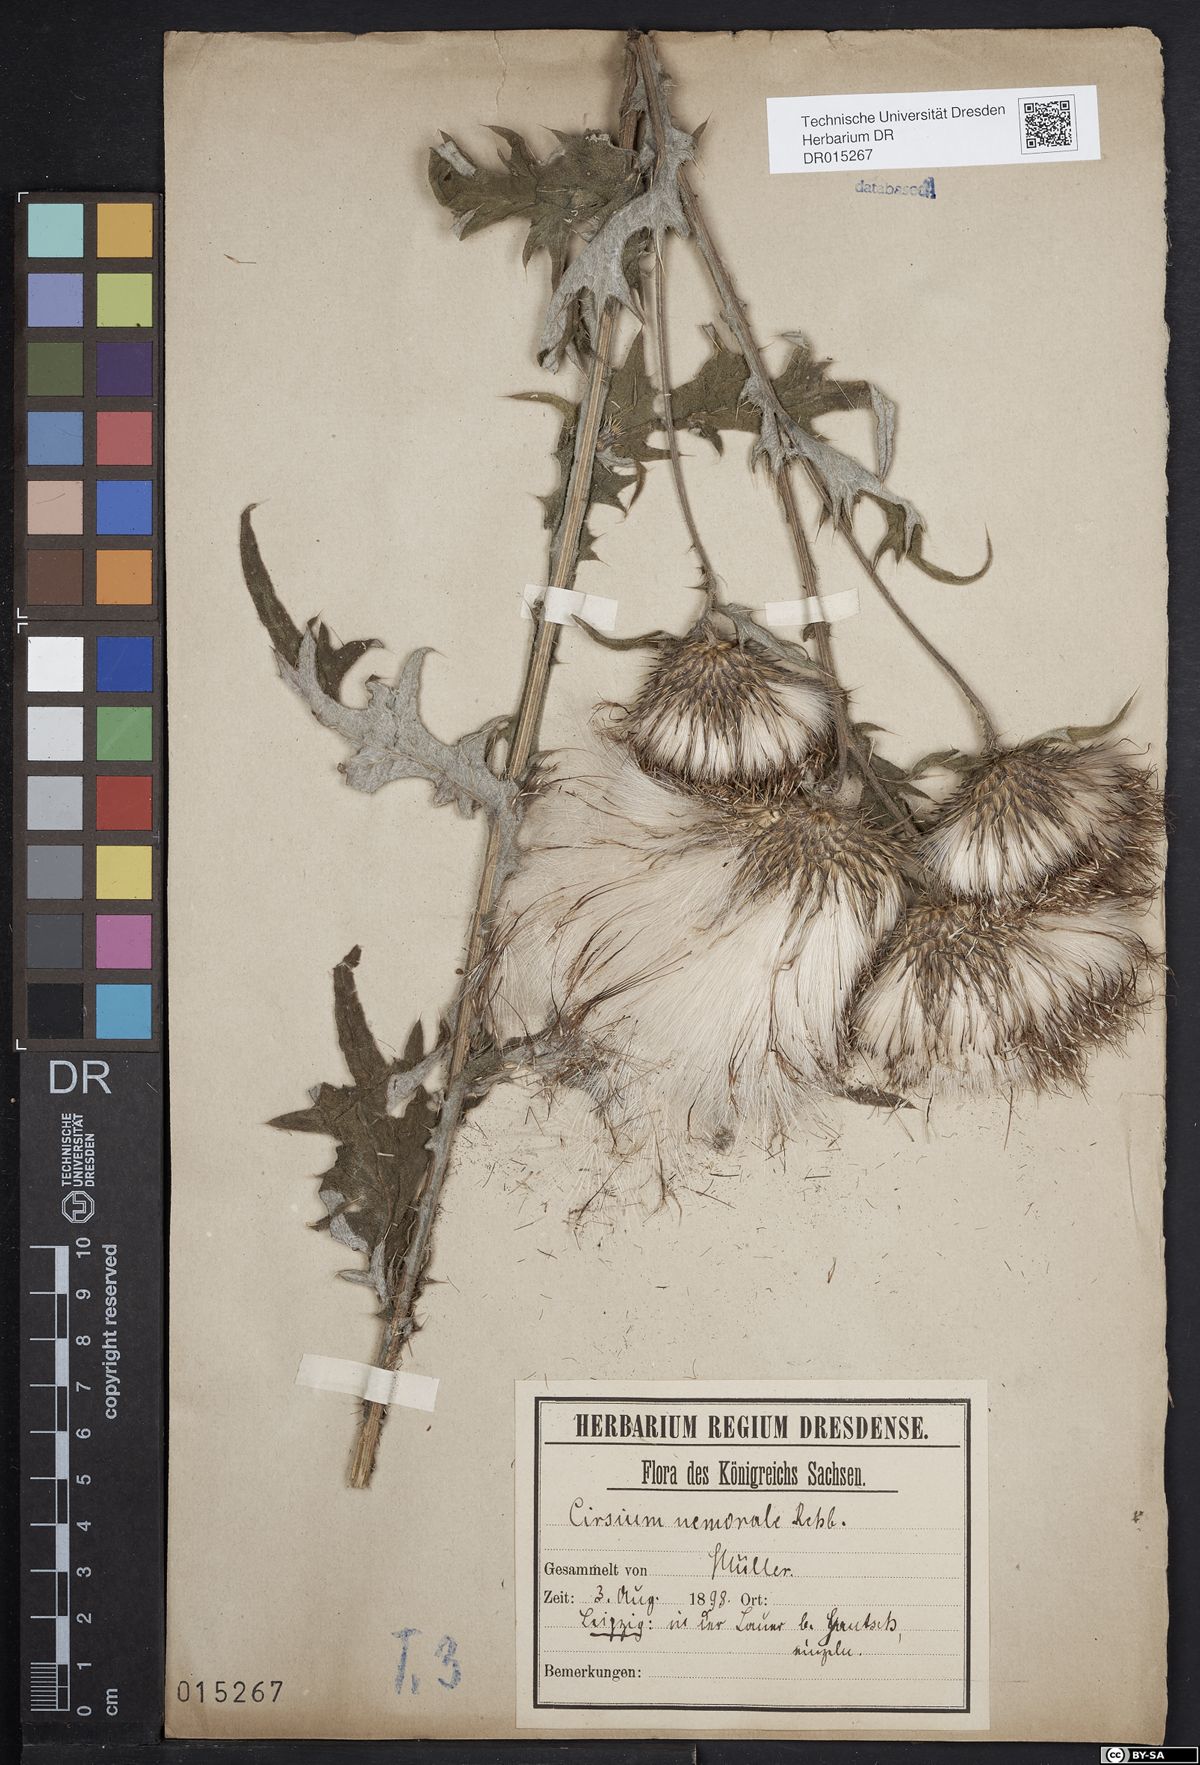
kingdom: Plantae
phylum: Tracheophyta
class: Magnoliopsida
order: Asterales
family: Asteraceae
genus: Cirsium
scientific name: Cirsium vulgare
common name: Bull thistle
